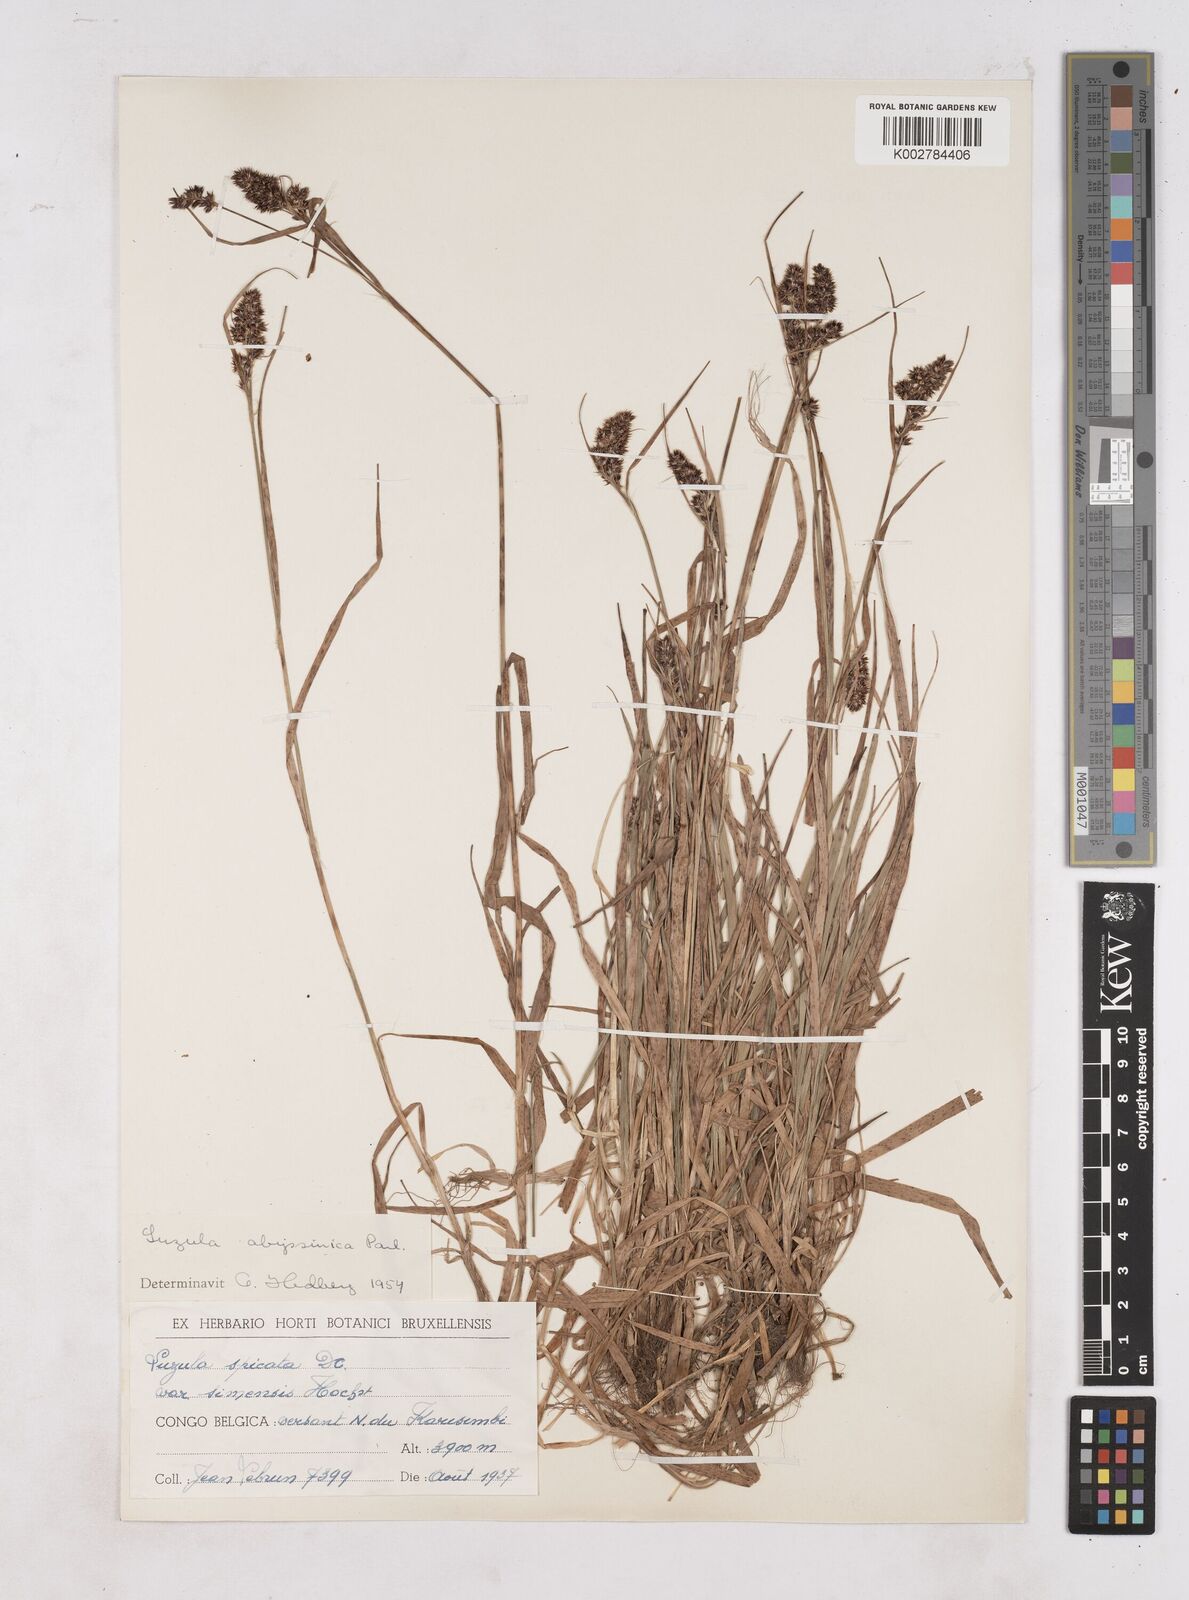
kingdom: Plantae
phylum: Tracheophyta
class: Liliopsida
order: Poales
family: Juncaceae
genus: Luzula
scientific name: Luzula abyssinica
